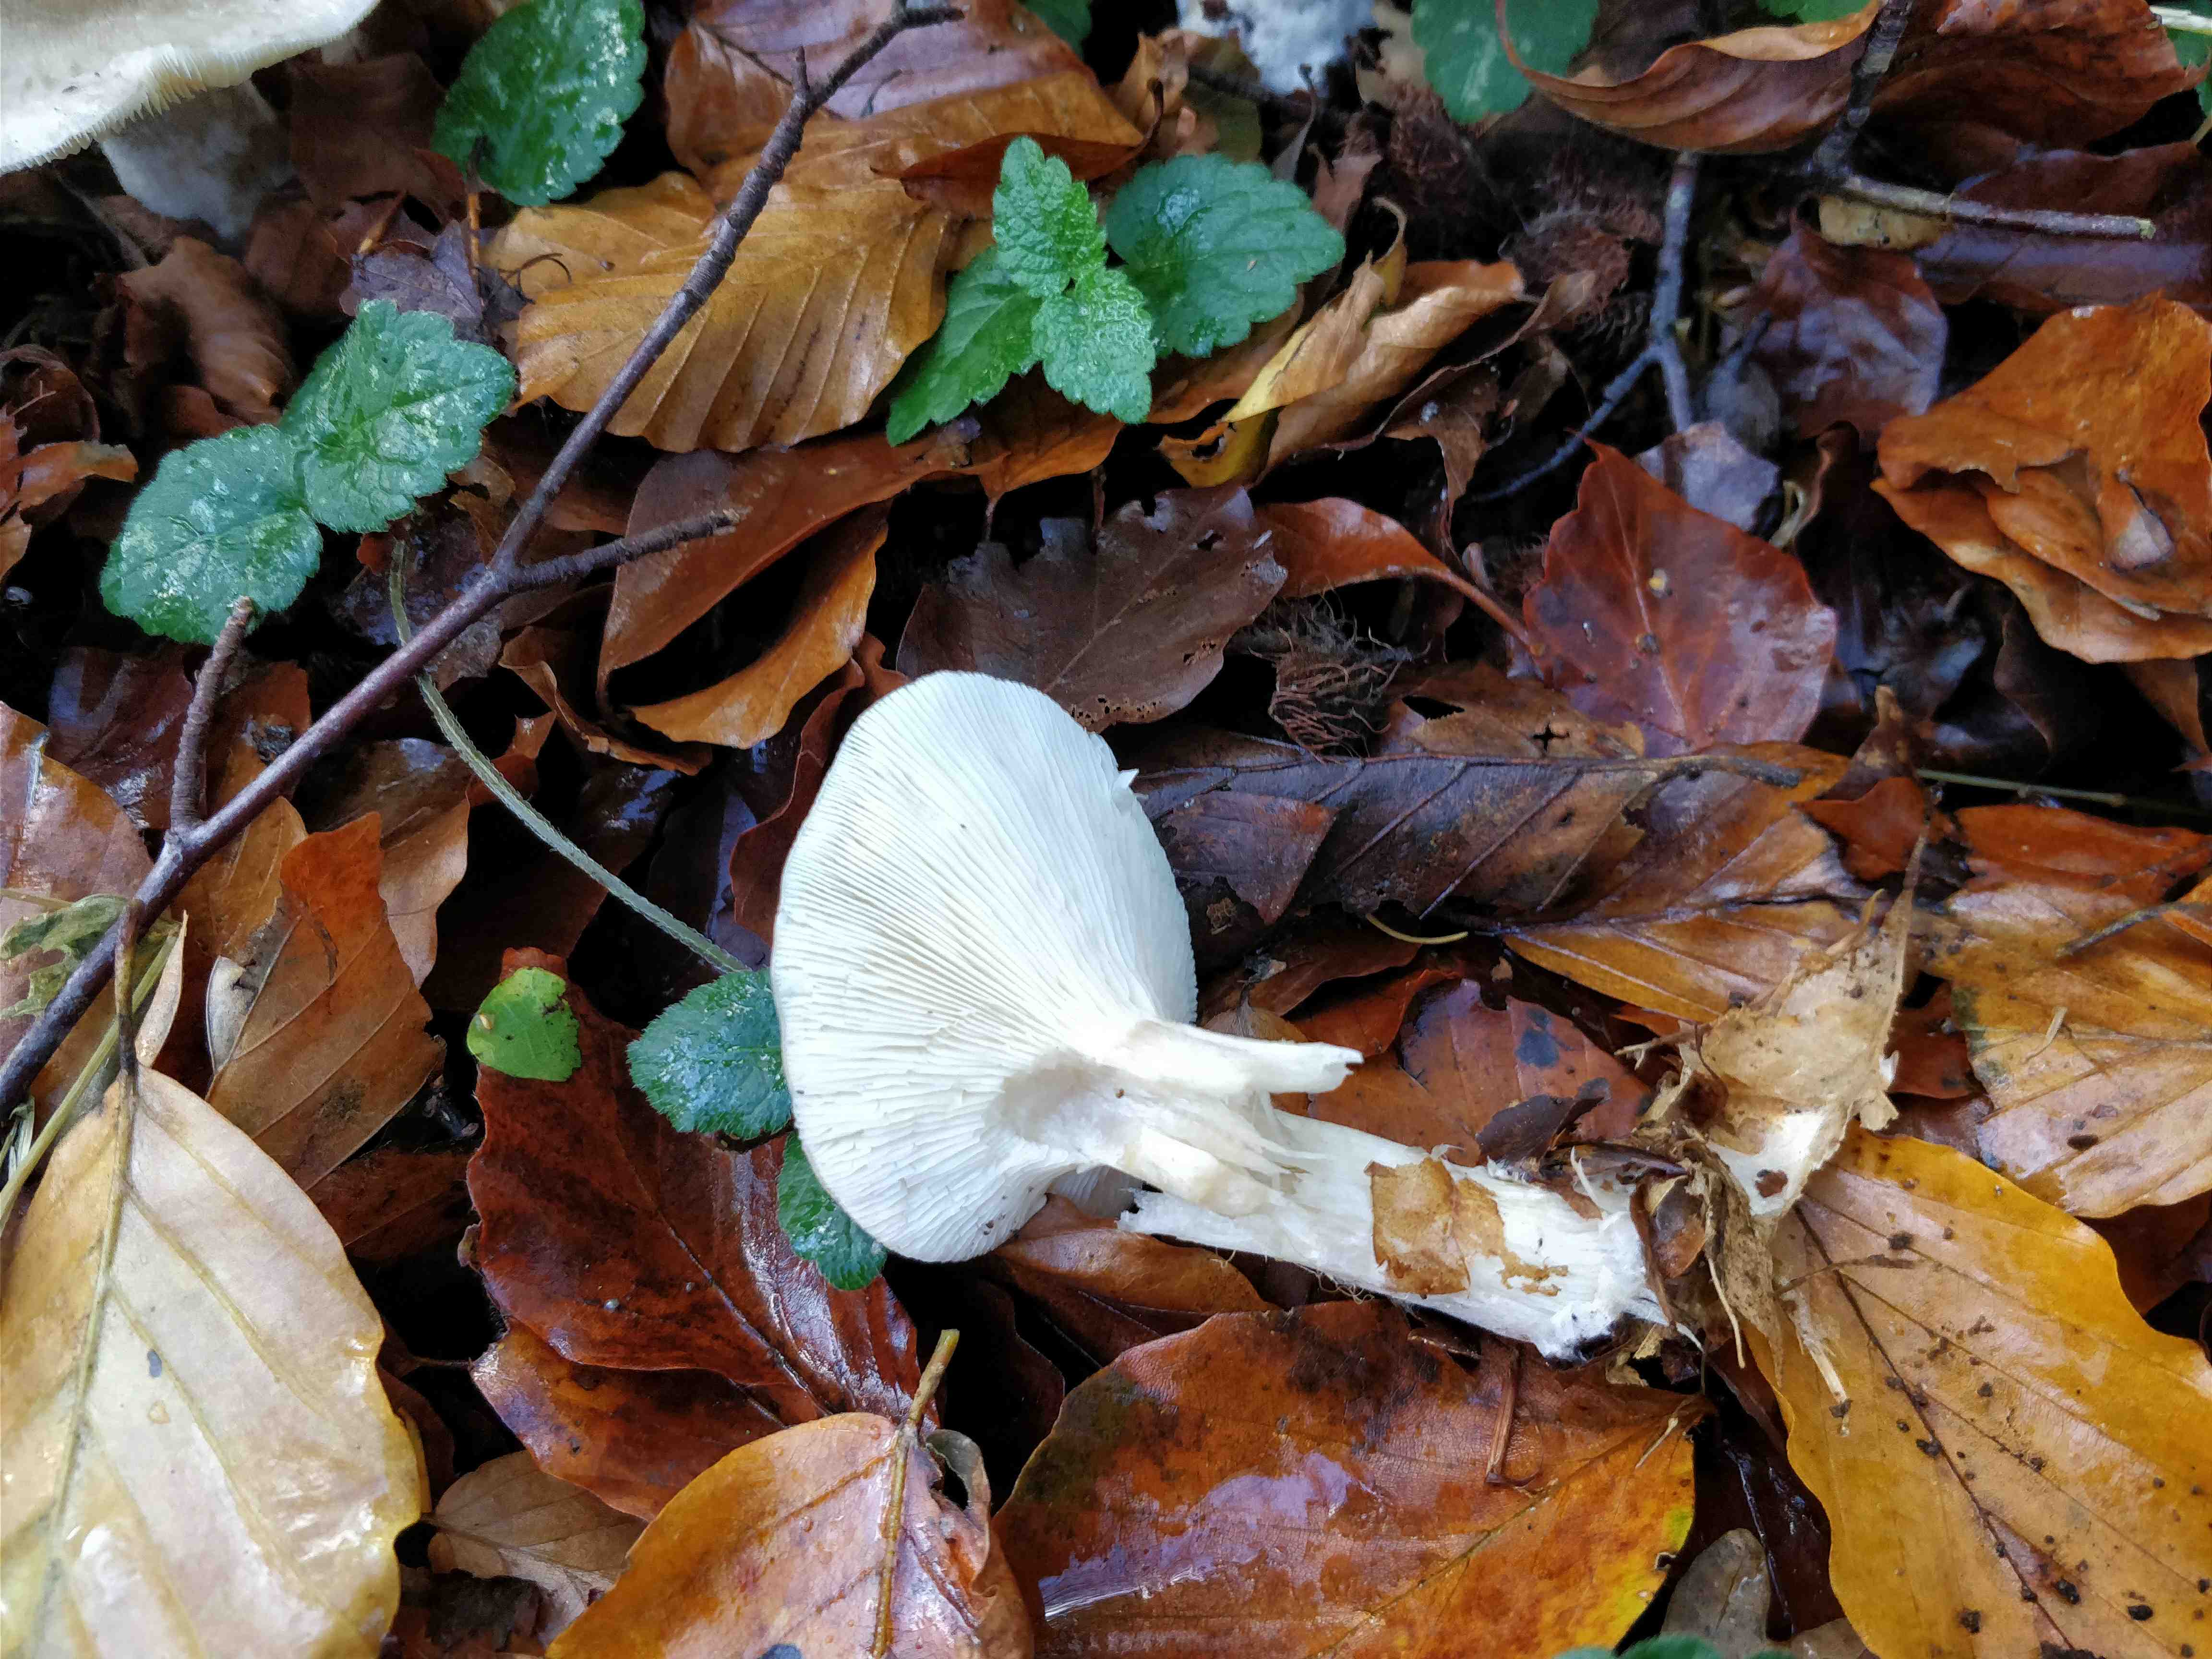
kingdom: Fungi
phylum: Basidiomycota
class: Agaricomycetes
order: Agaricales
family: Tricholomataceae
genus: Clitocybe
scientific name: Clitocybe nebularis
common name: tåge-tragthat
